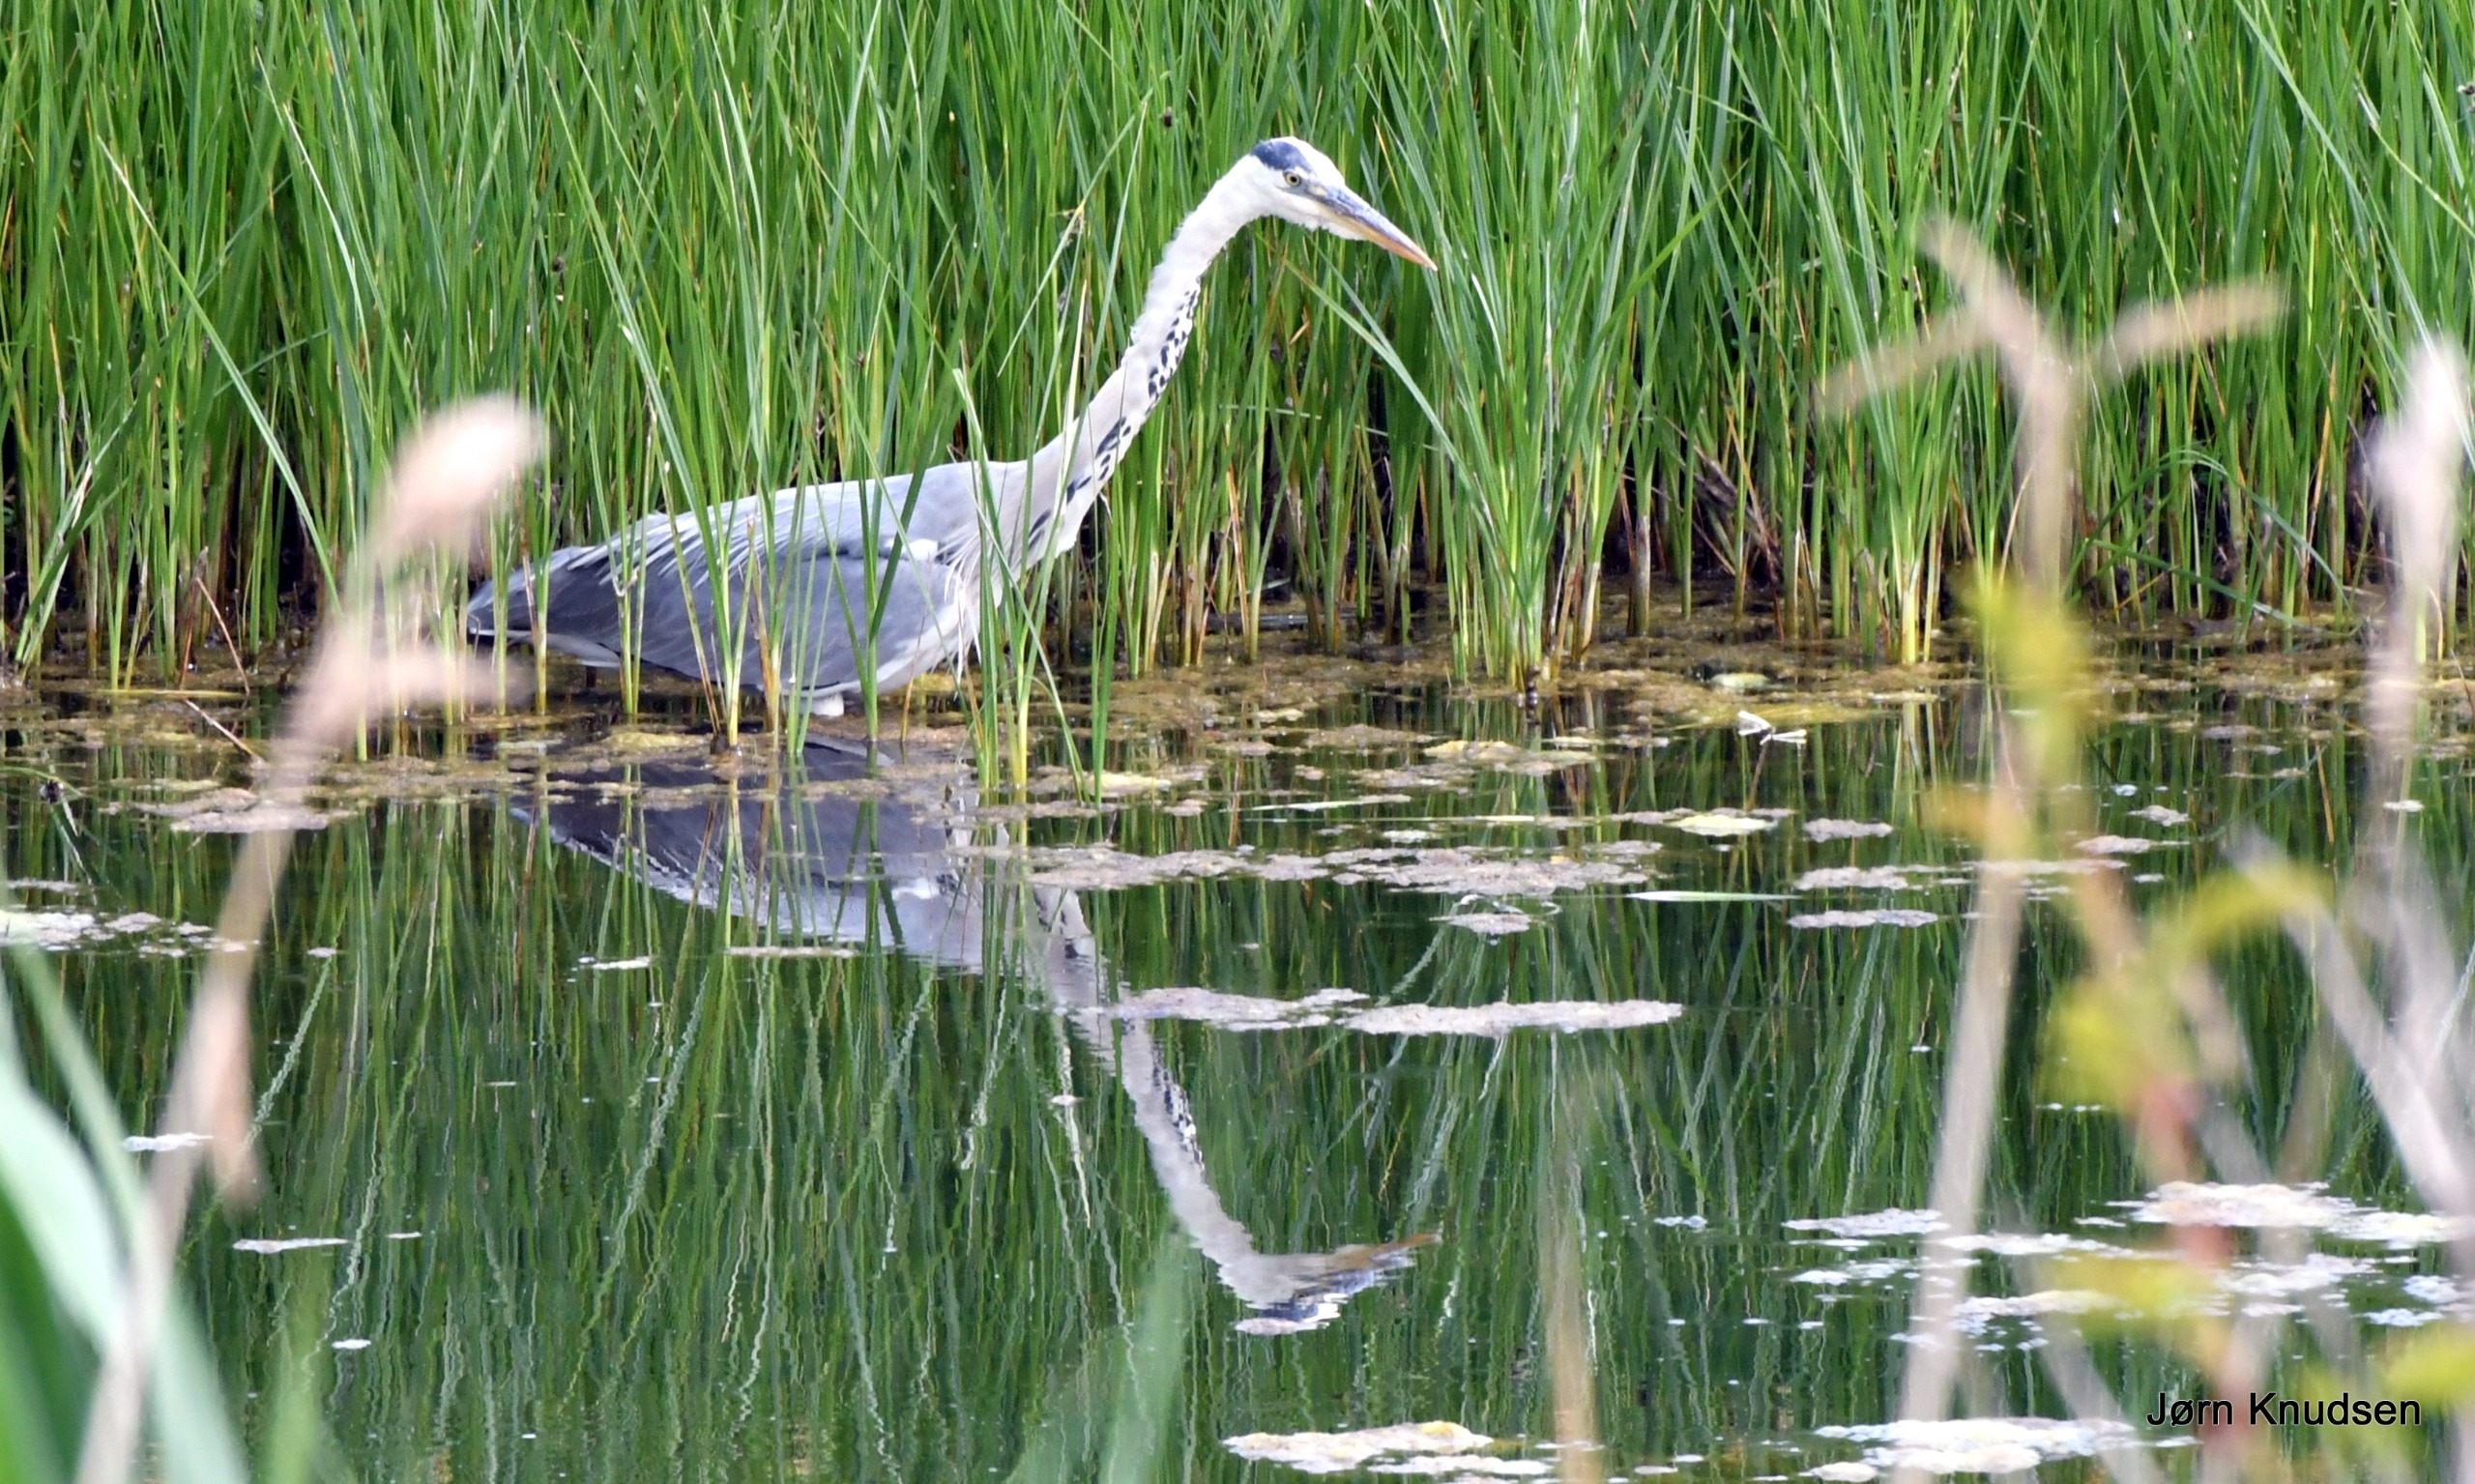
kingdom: Animalia
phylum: Chordata
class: Aves
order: Pelecaniformes
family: Ardeidae
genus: Ardea
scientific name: Ardea cinerea
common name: Fiskehejre
